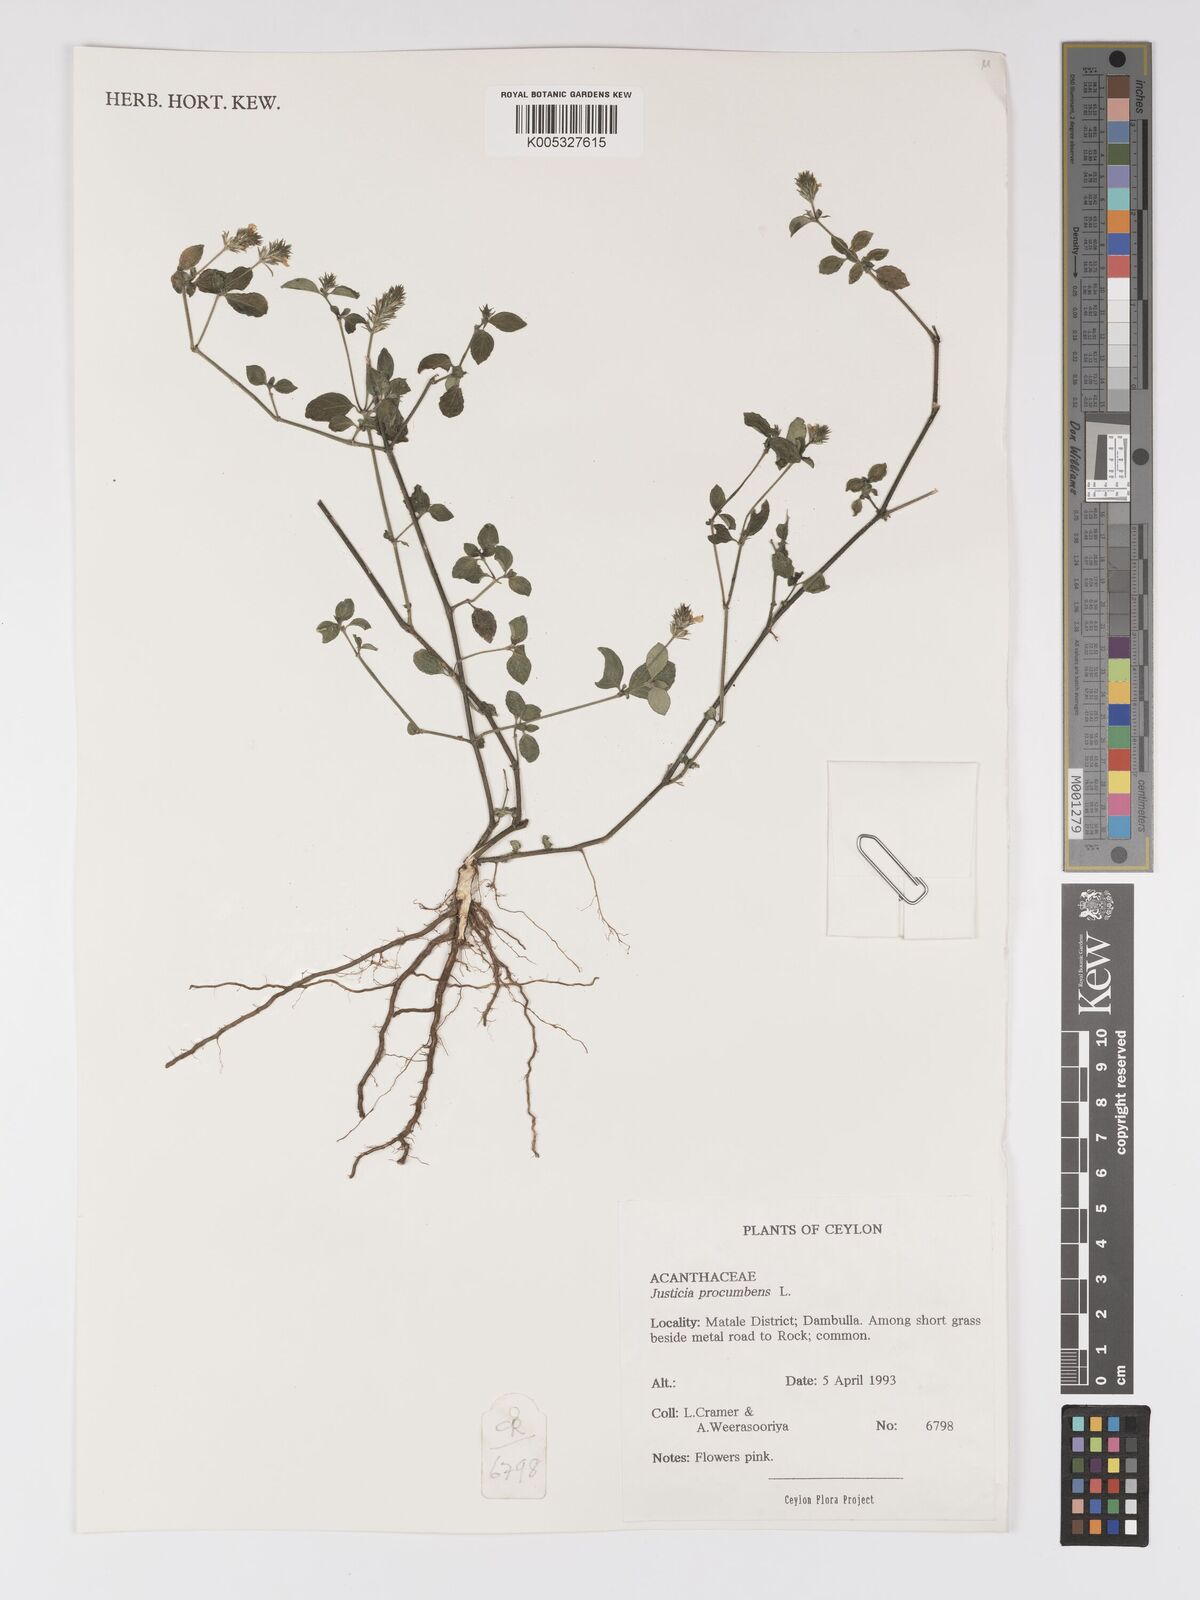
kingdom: Plantae
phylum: Tracheophyta
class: Magnoliopsida
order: Lamiales
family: Acanthaceae
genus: Rostellularia
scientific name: Rostellularia procumbens
